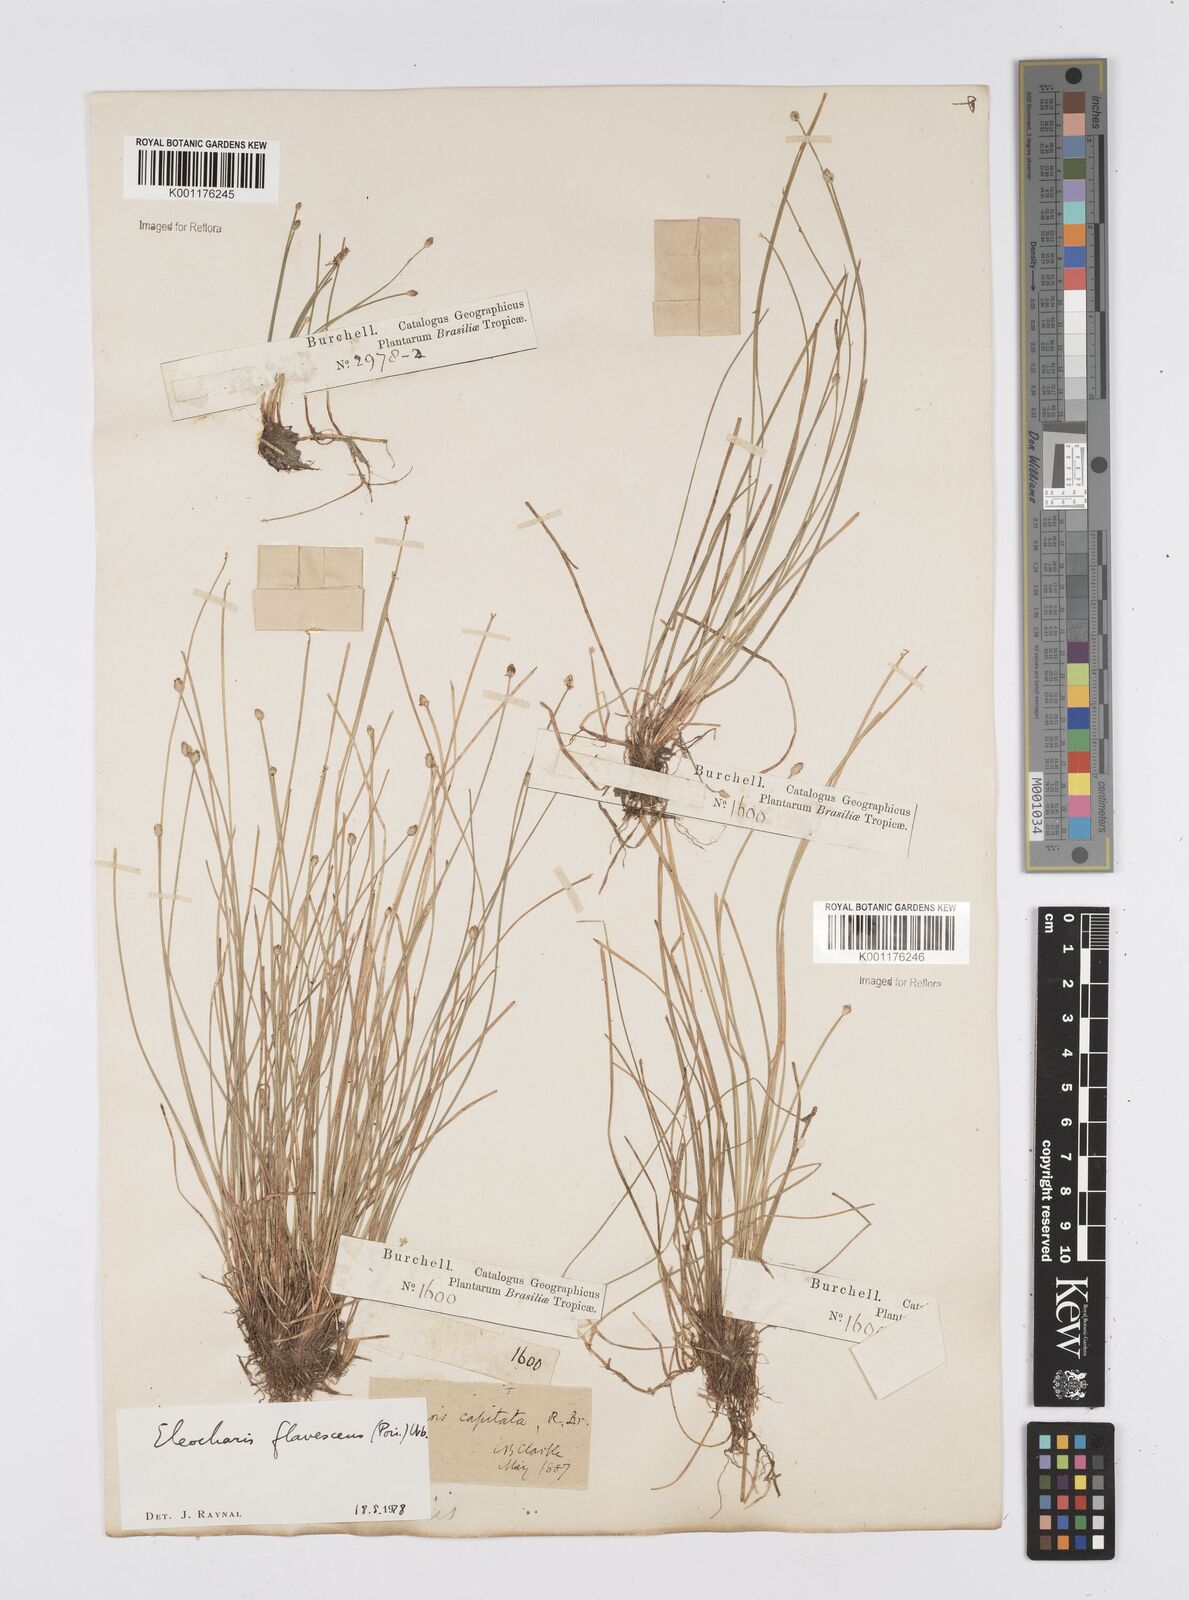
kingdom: Plantae
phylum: Tracheophyta
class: Liliopsida
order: Poales
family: Cyperaceae
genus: Eleocharis
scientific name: Eleocharis flavescens
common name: Yellow spikerush
